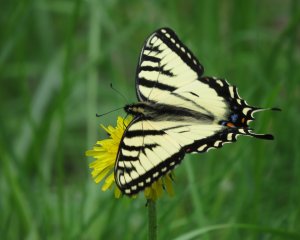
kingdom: Animalia
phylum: Arthropoda
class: Insecta
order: Lepidoptera
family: Papilionidae
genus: Pterourus
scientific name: Pterourus canadensis
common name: Canadian Tiger Swallowtail
